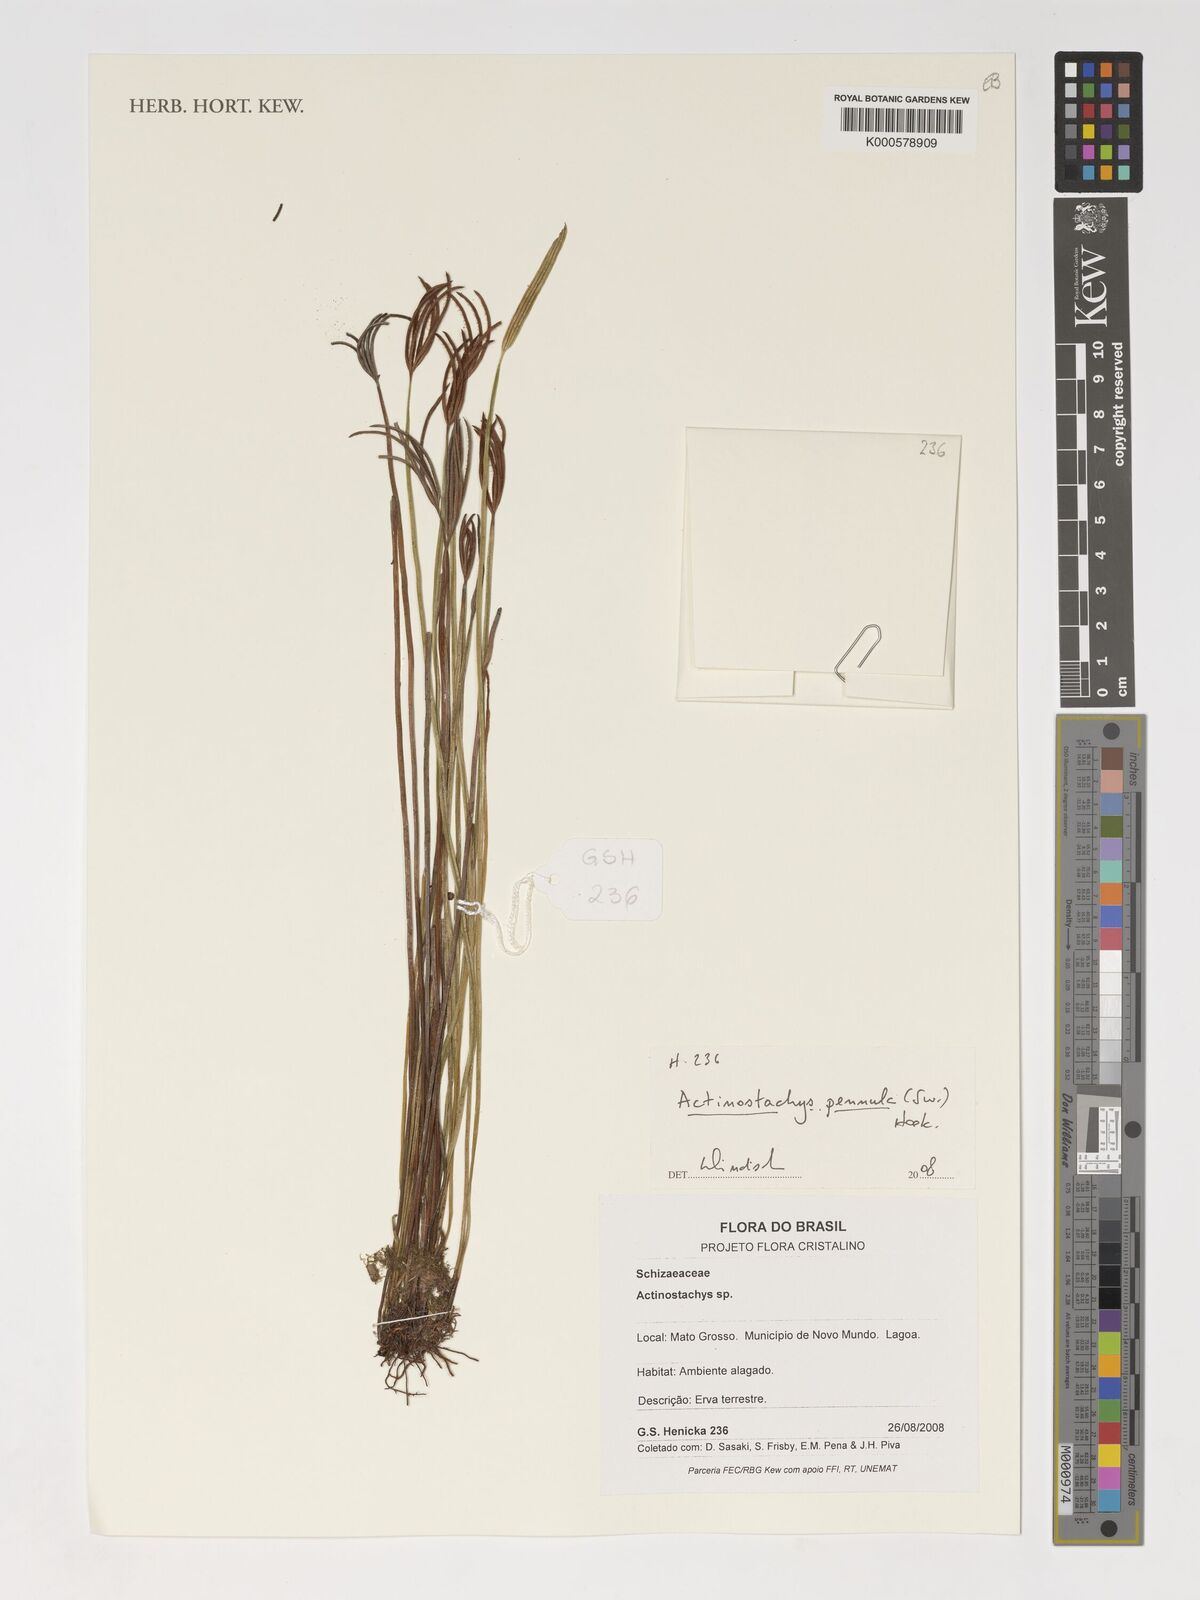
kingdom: Plantae
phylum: Tracheophyta
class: Polypodiopsida
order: Schizaeales
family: Schizaeaceae
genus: Actinostachys
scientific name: Actinostachys pennula
